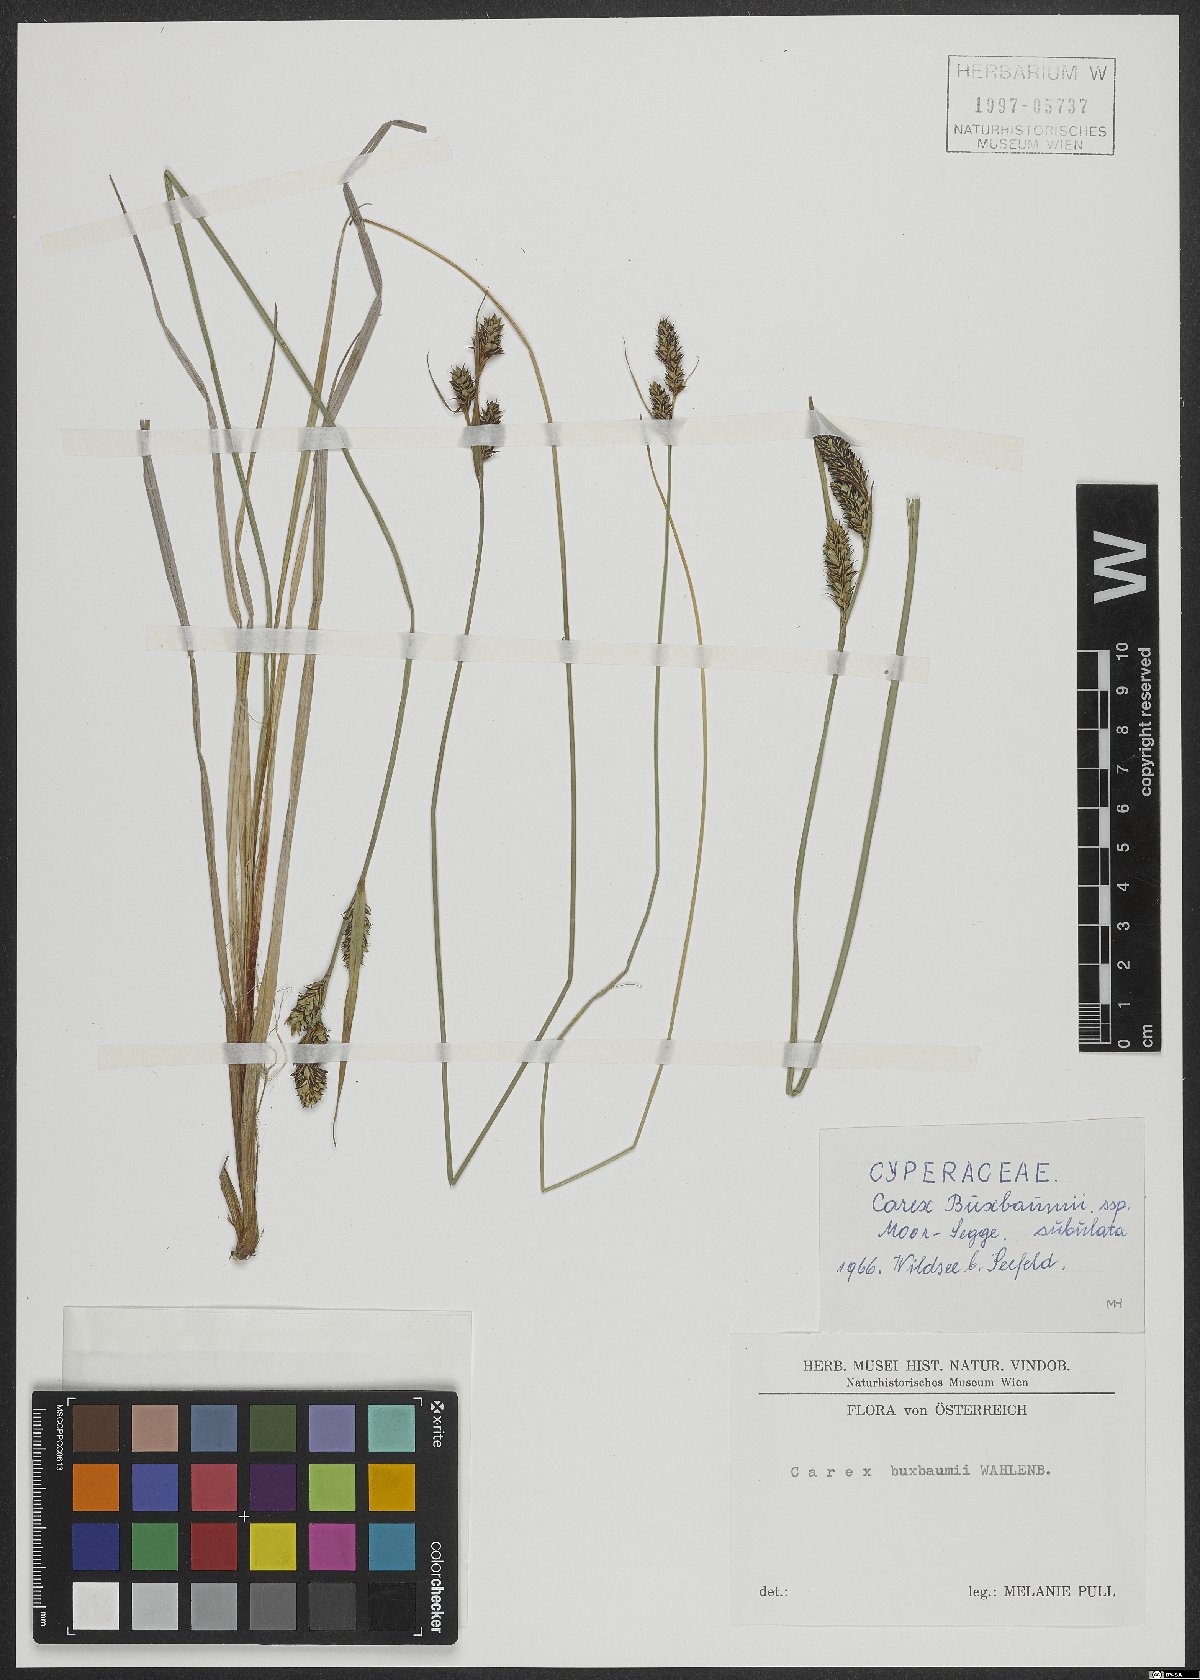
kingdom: Plantae
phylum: Tracheophyta
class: Liliopsida
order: Poales
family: Cyperaceae
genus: Carex
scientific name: Carex buxbaumii
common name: Club sedge
